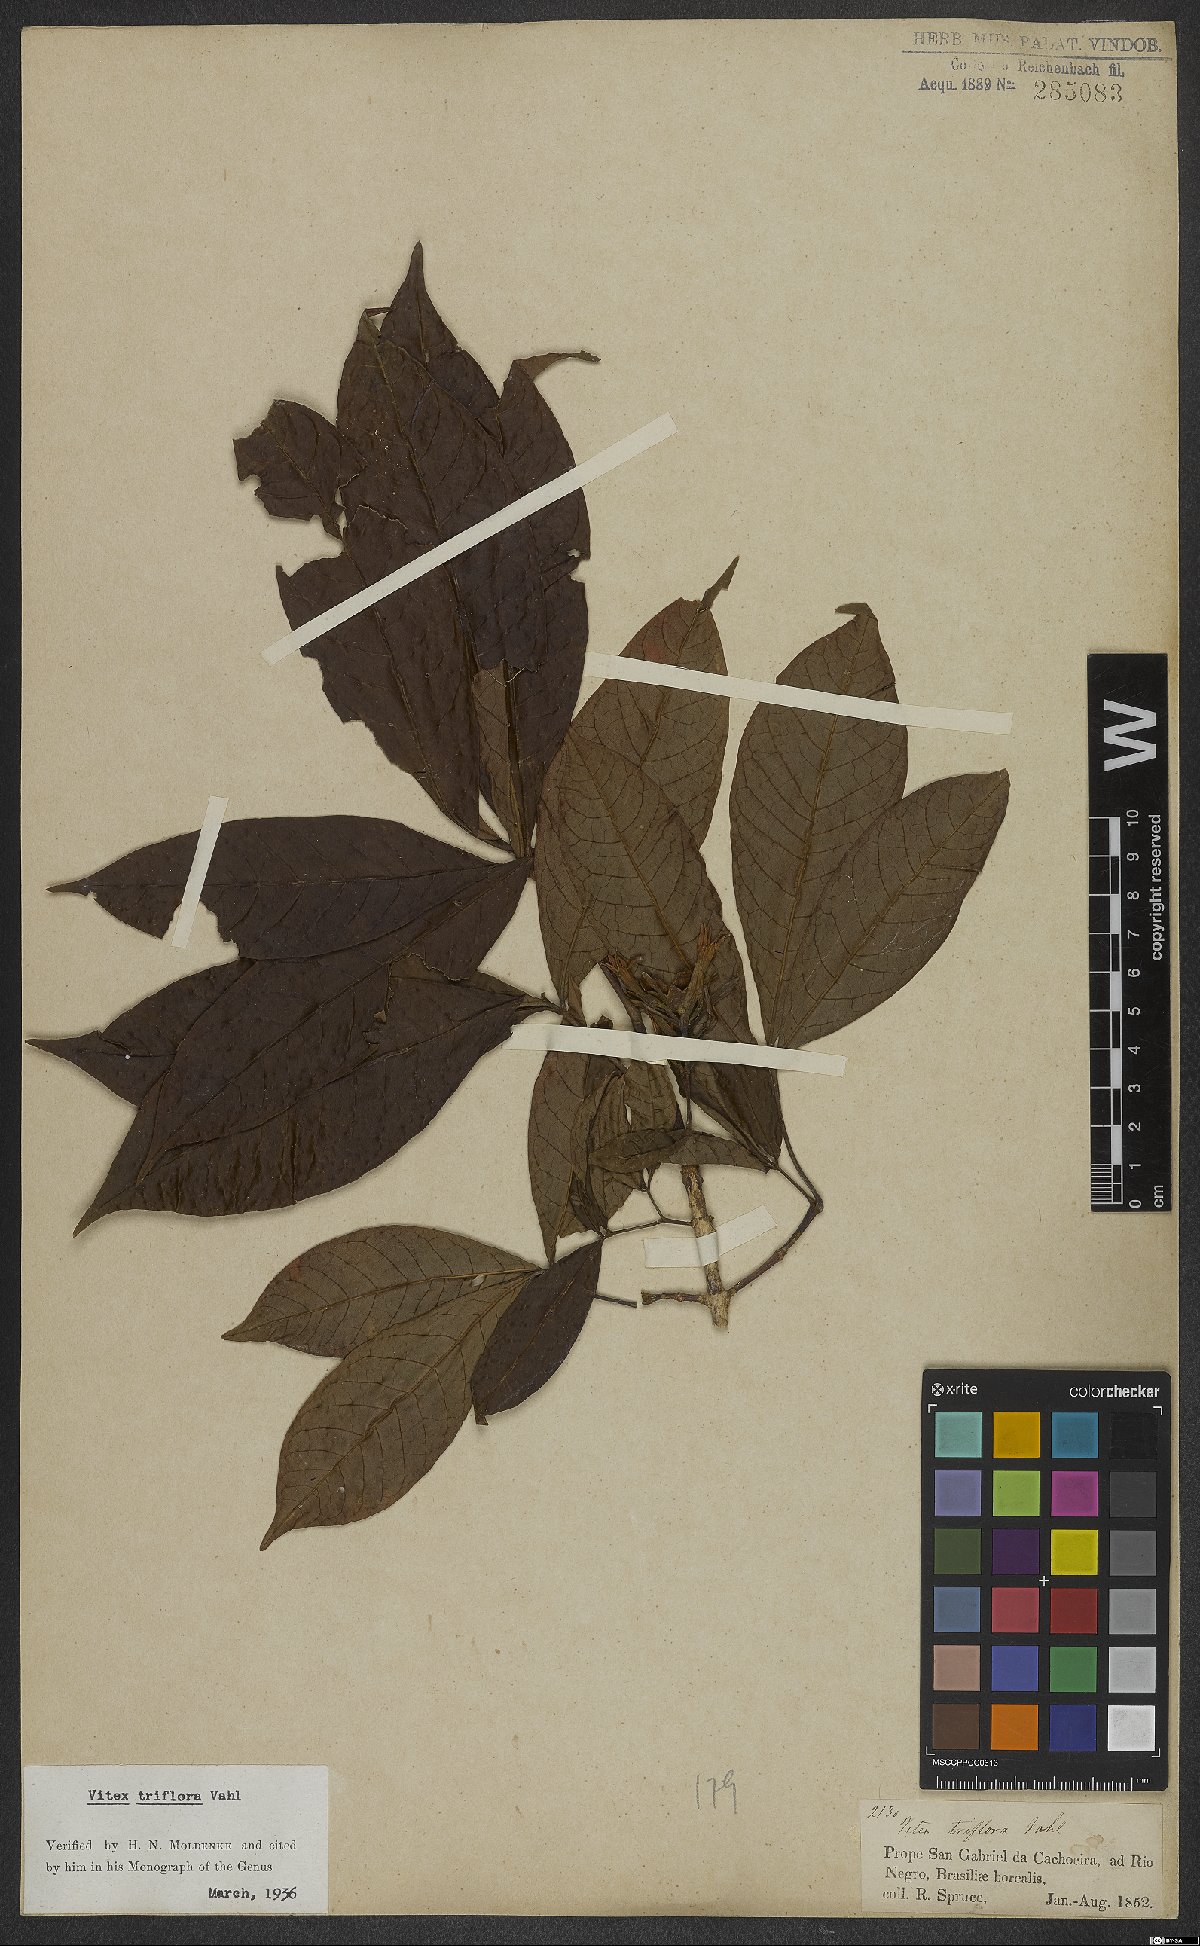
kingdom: Plantae
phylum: Tracheophyta
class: Magnoliopsida
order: Lamiales
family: Lamiaceae
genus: Vitex
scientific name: Vitex triflora
